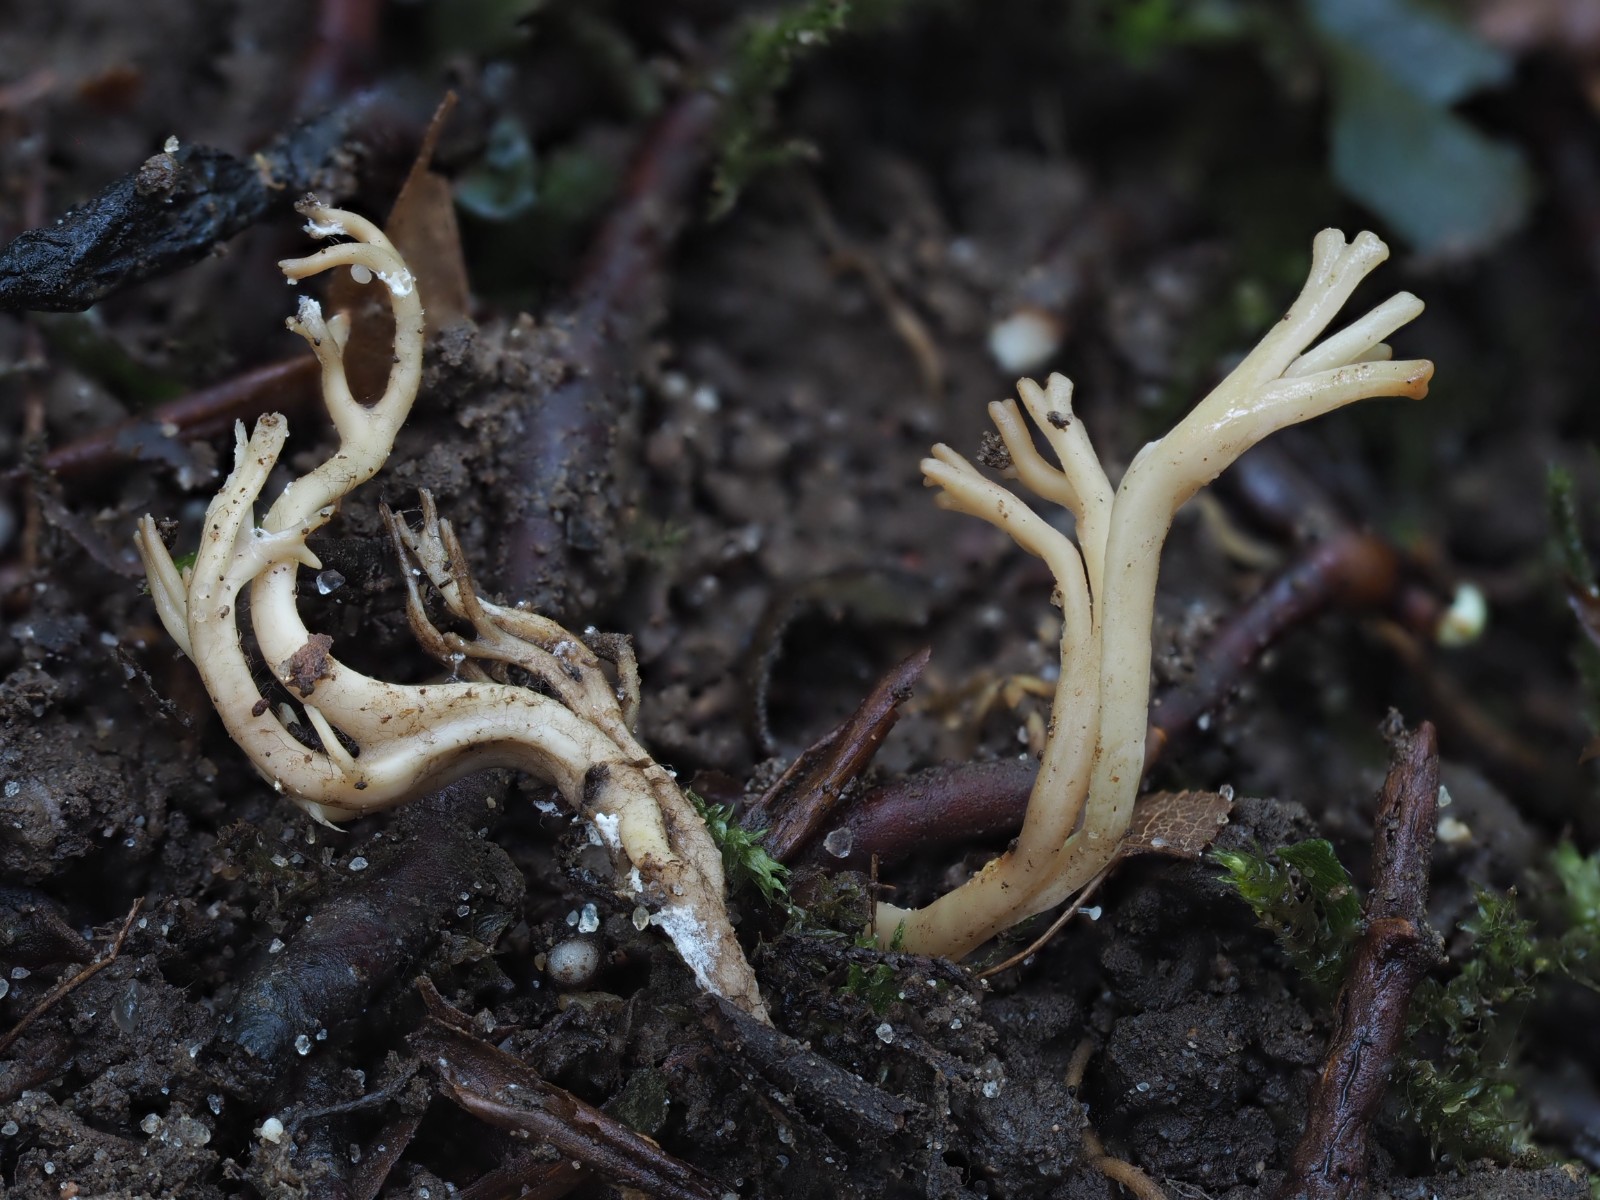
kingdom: Fungi
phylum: Basidiomycota
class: Agaricomycetes
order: Agaricales
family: Clavariaceae
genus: Clavulinopsis
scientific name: Clavulinopsis umbrinella
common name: gulgrå køllesvamp
